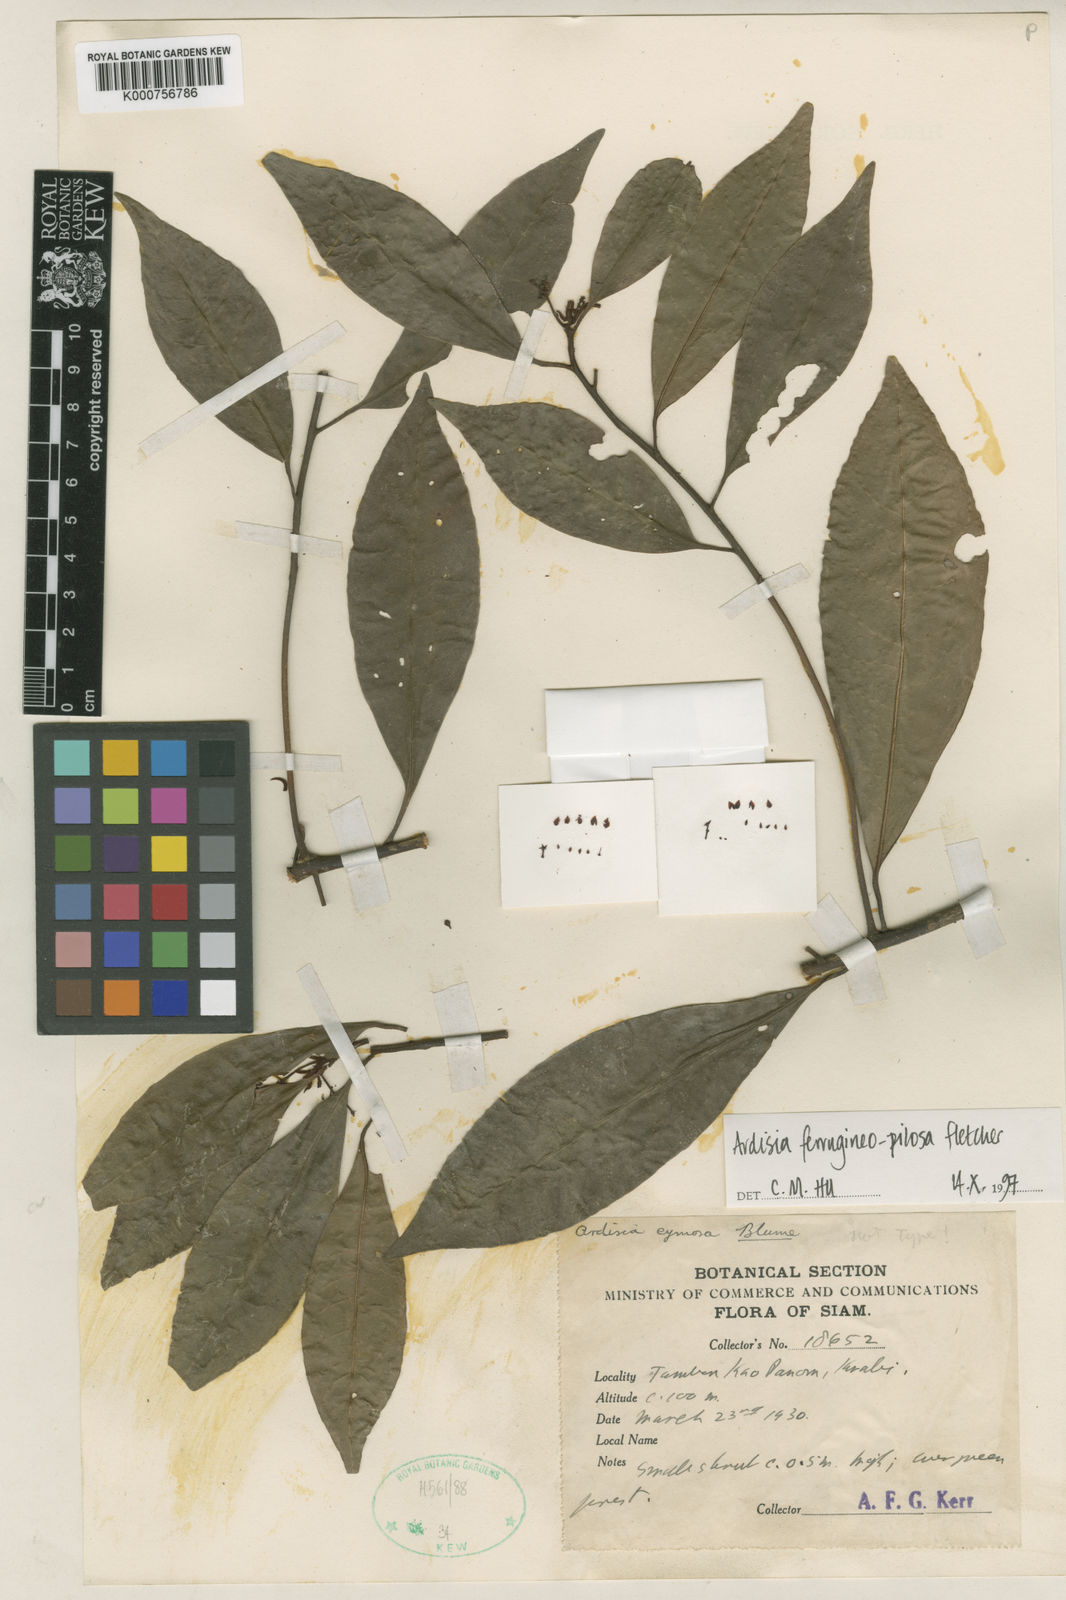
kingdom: Plantae
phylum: Tracheophyta
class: Magnoliopsida
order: Ericales
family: Primulaceae
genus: Ardisia
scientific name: Ardisia cymosa
